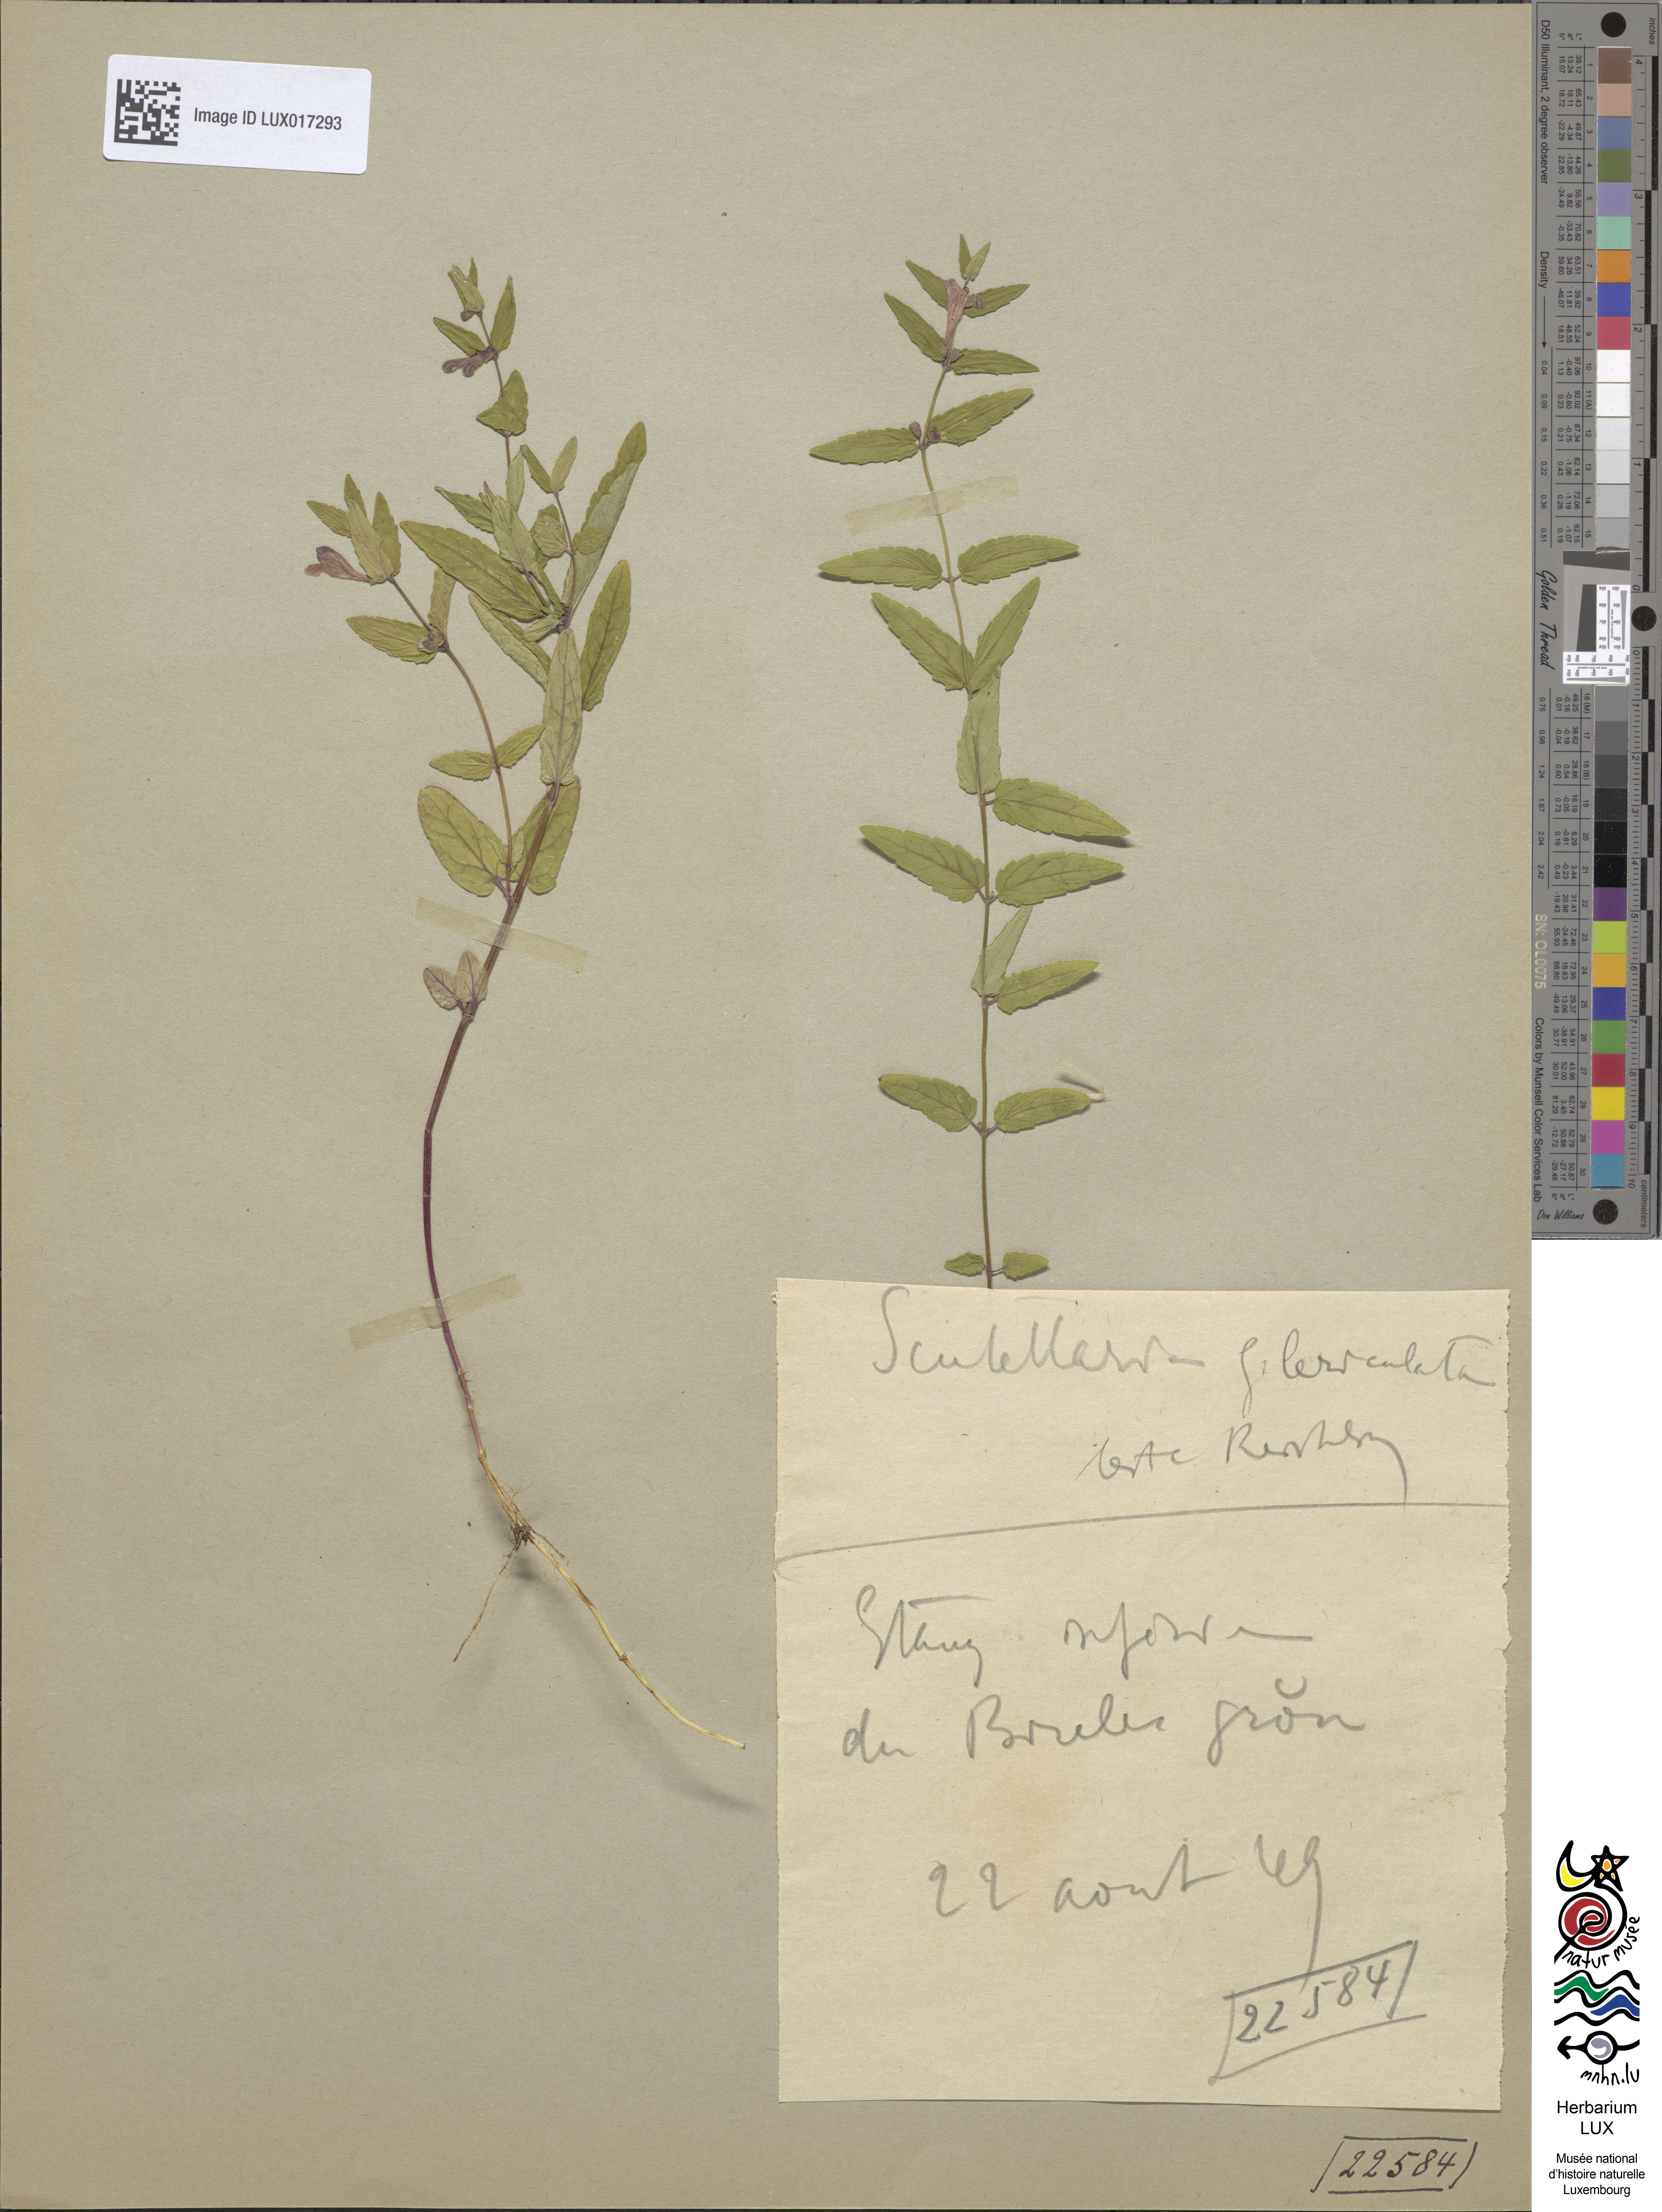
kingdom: Plantae
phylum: Tracheophyta
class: Magnoliopsida
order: Lamiales
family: Lamiaceae
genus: Scutellaria
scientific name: Scutellaria galericulata
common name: Skullcap
